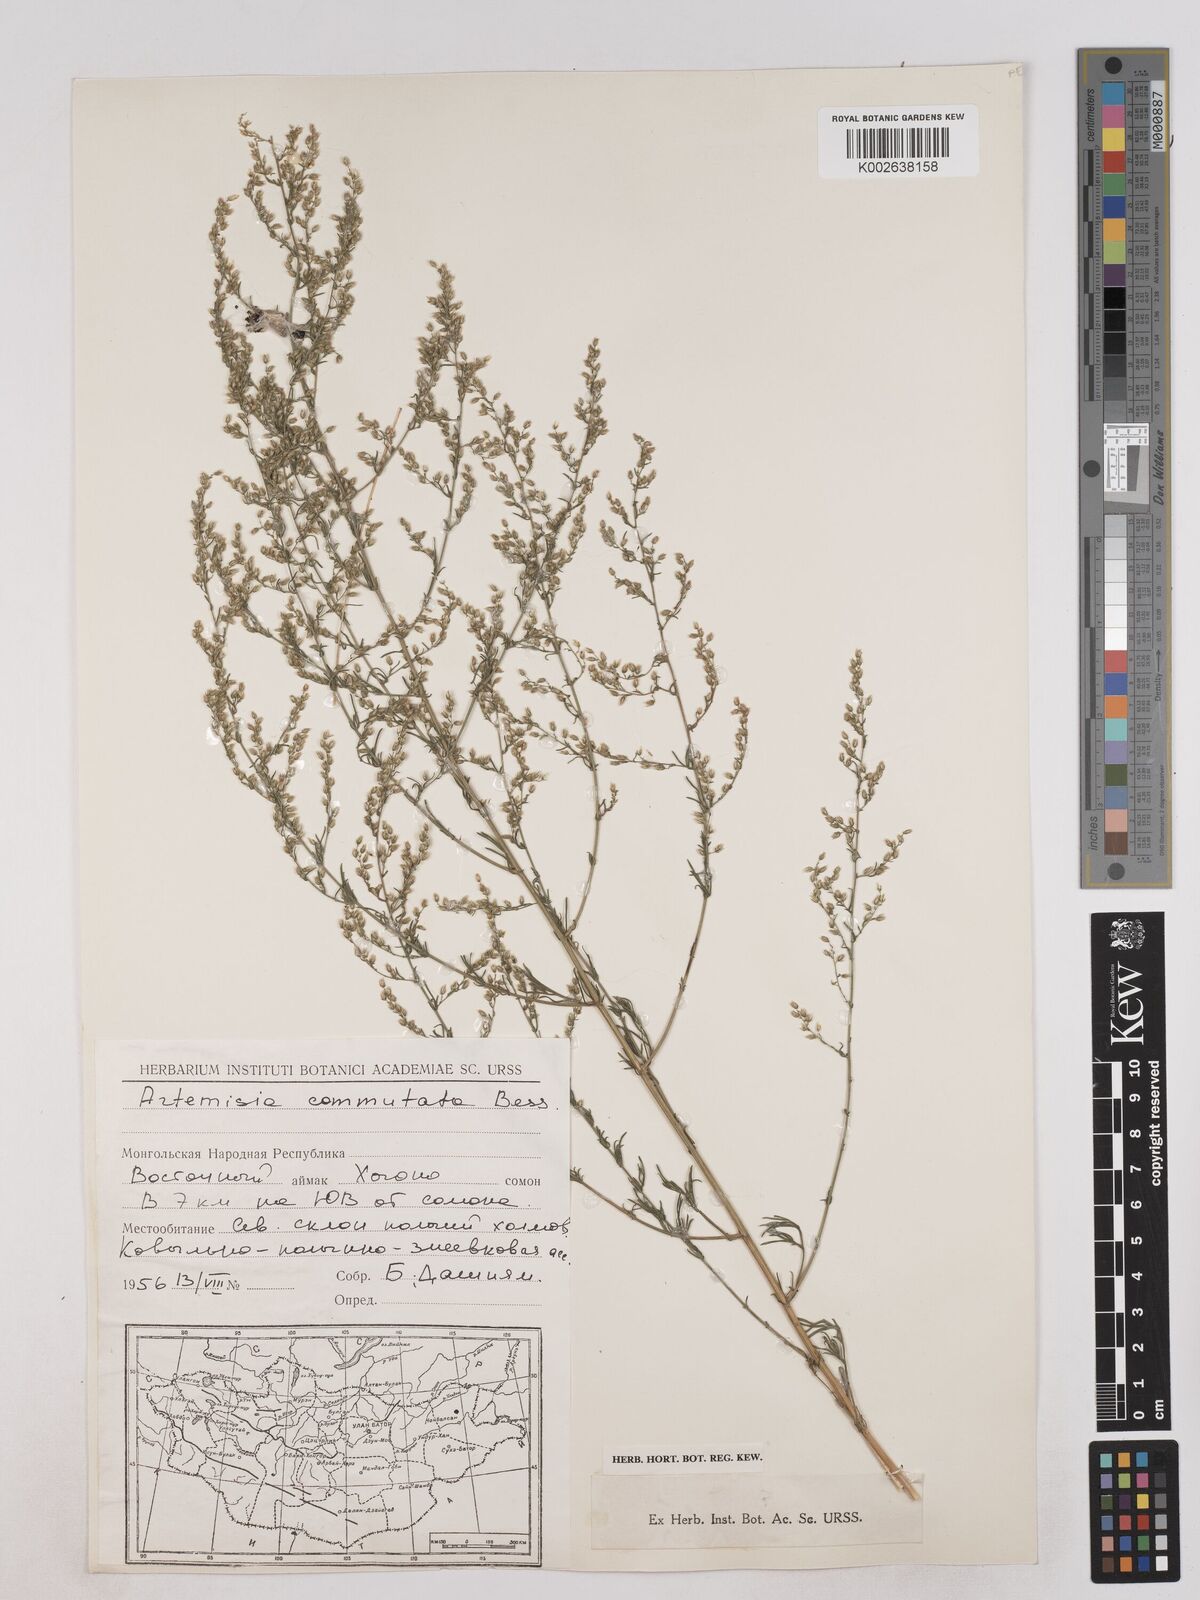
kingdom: Plantae
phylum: Tracheophyta
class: Magnoliopsida
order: Asterales
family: Asteraceae
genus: Artemisia
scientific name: Artemisia pubescens
